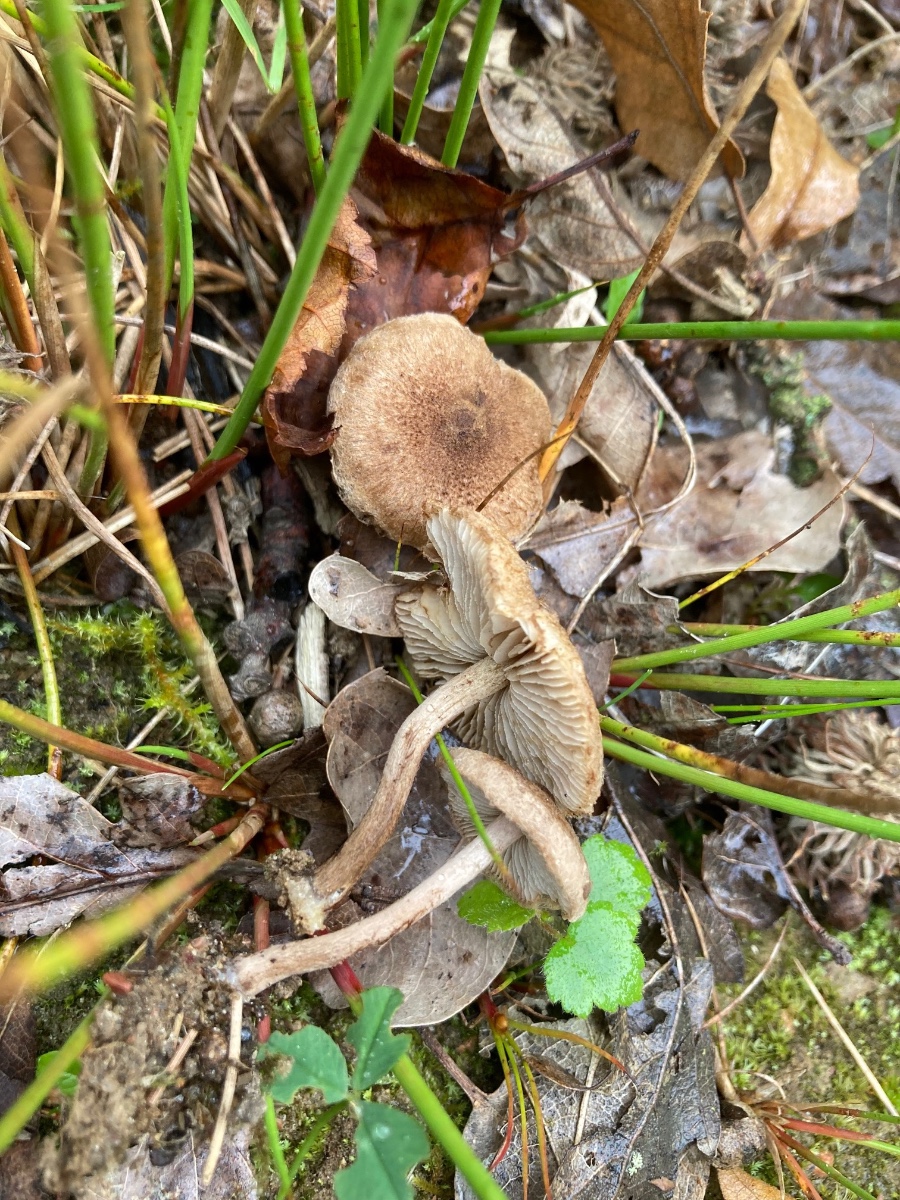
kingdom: Fungi
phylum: Basidiomycota
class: Agaricomycetes
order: Agaricales
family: Inocybaceae
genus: Inocybe
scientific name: Inocybe lacera
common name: laset trævlhat
